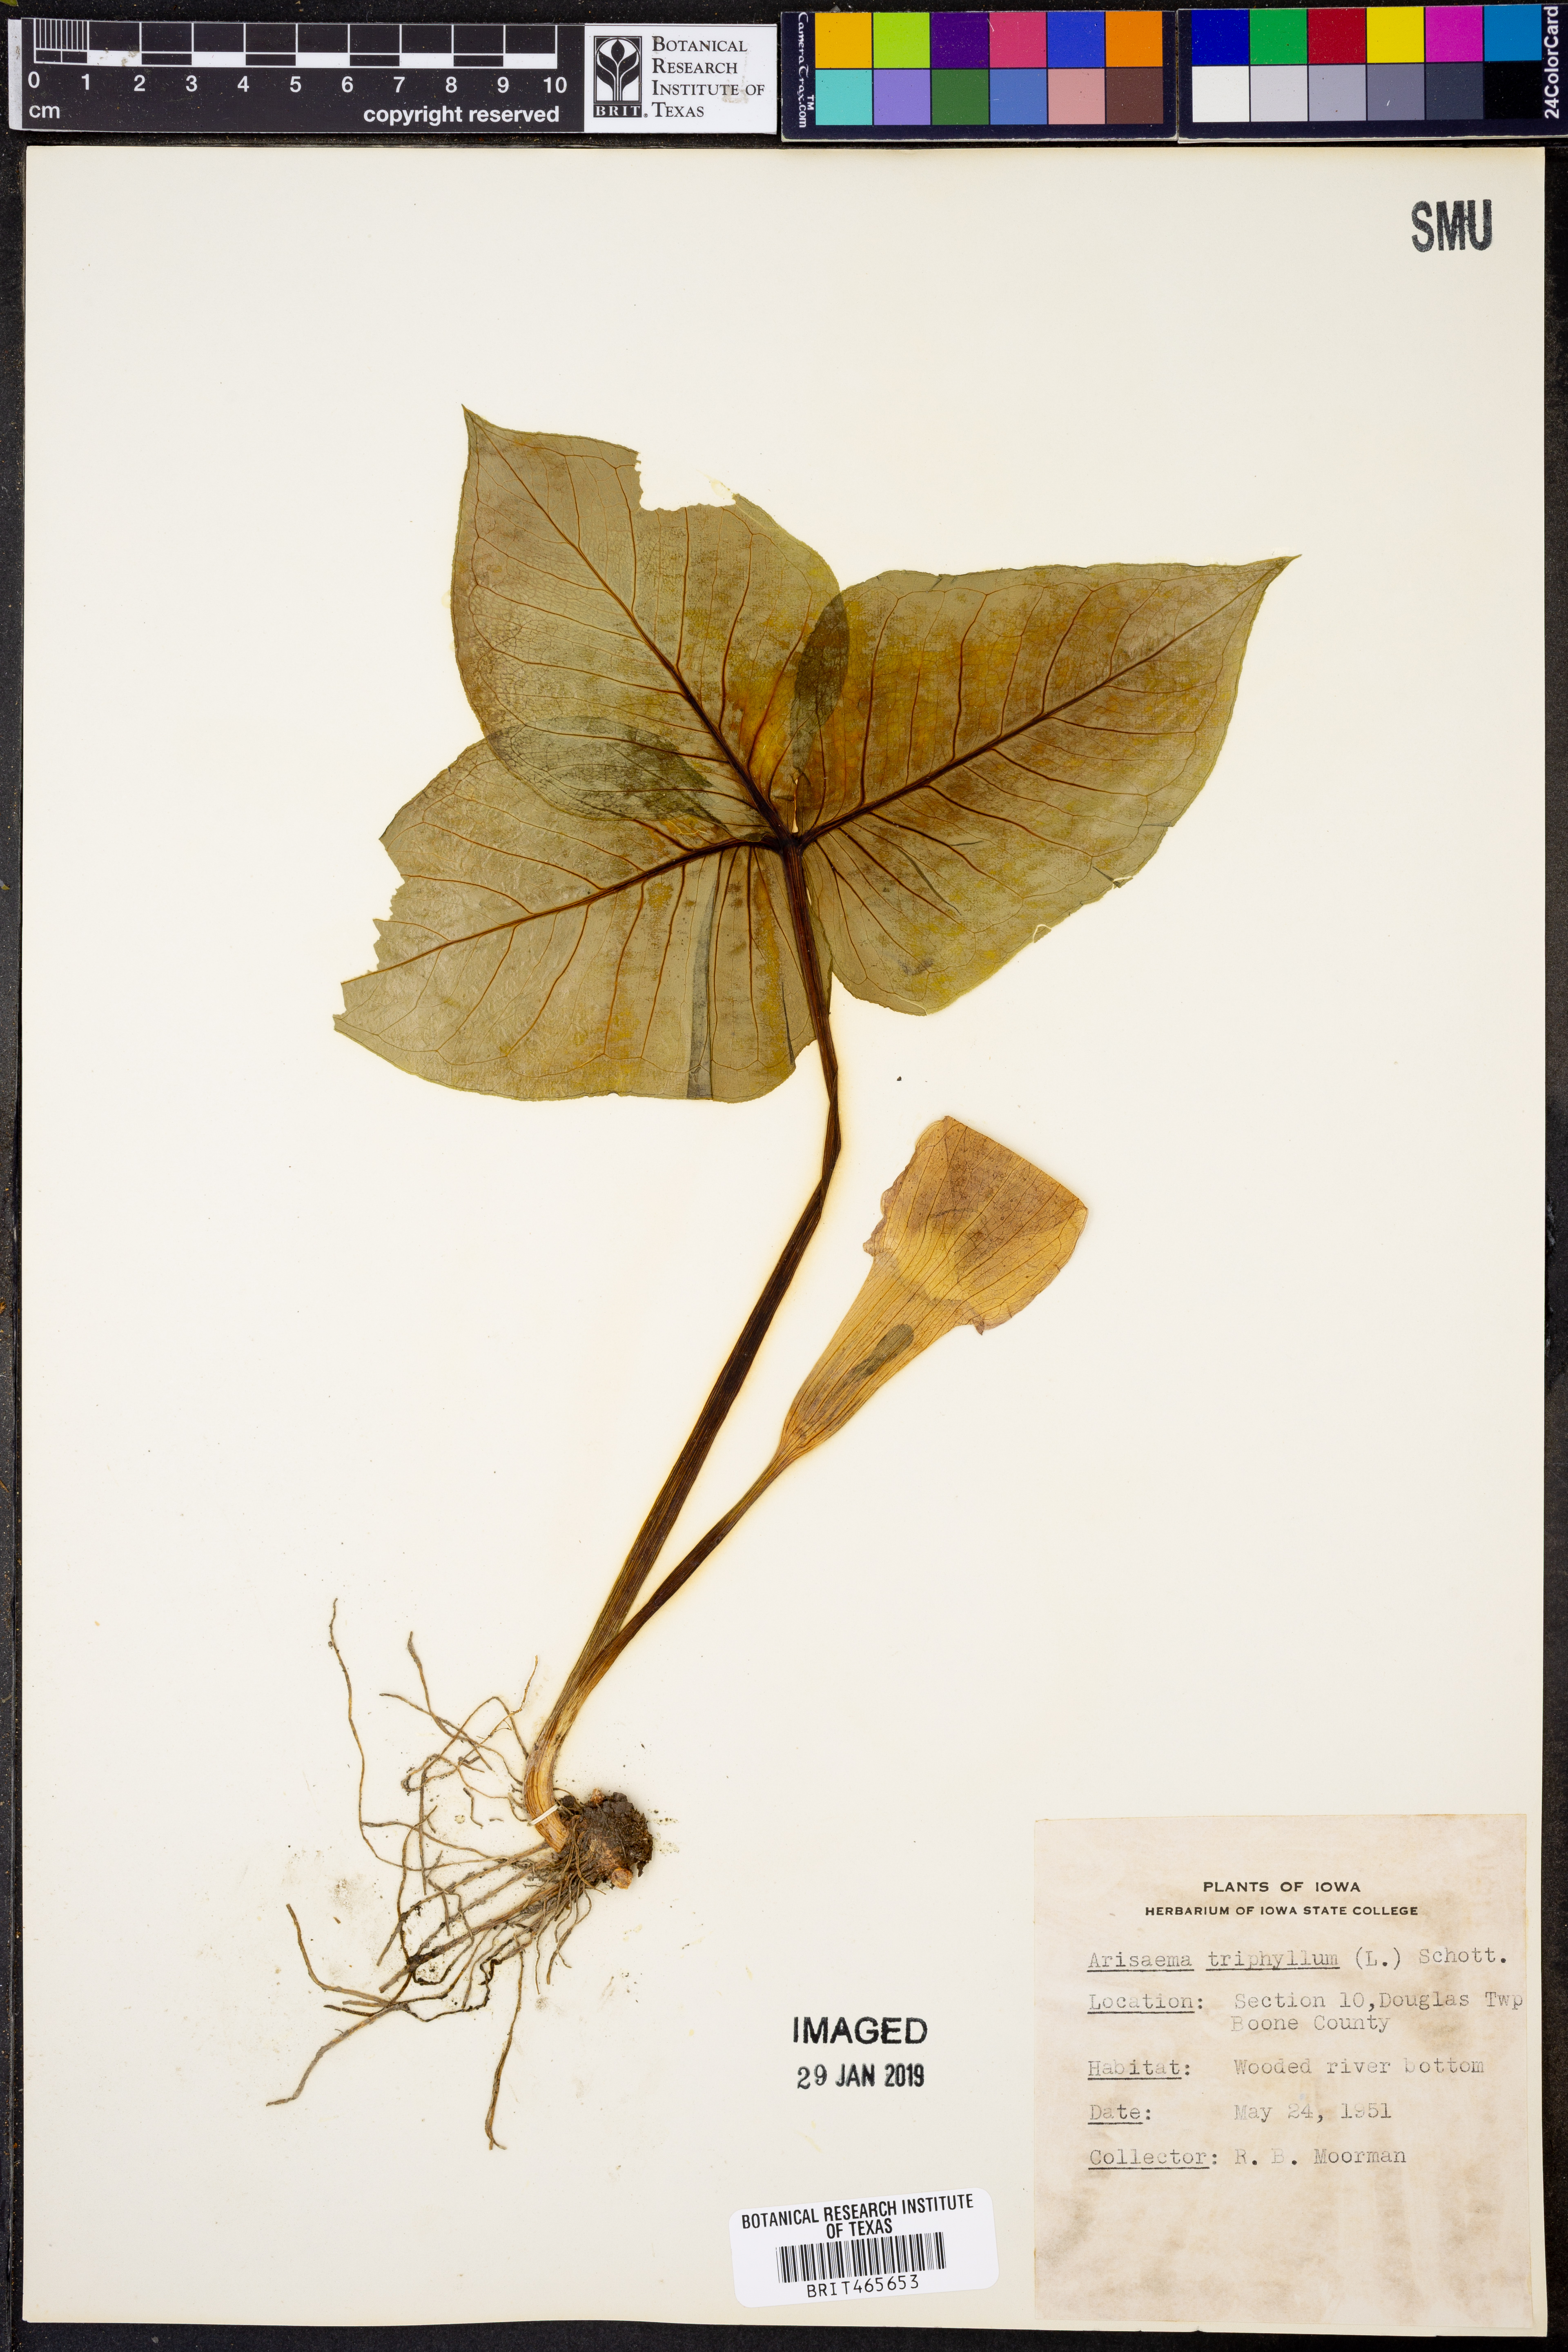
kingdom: Plantae
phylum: Tracheophyta
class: Liliopsida
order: Alismatales
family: Araceae
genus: Arisaema
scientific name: Arisaema triphyllum
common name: Jack-in-the-pulpit
